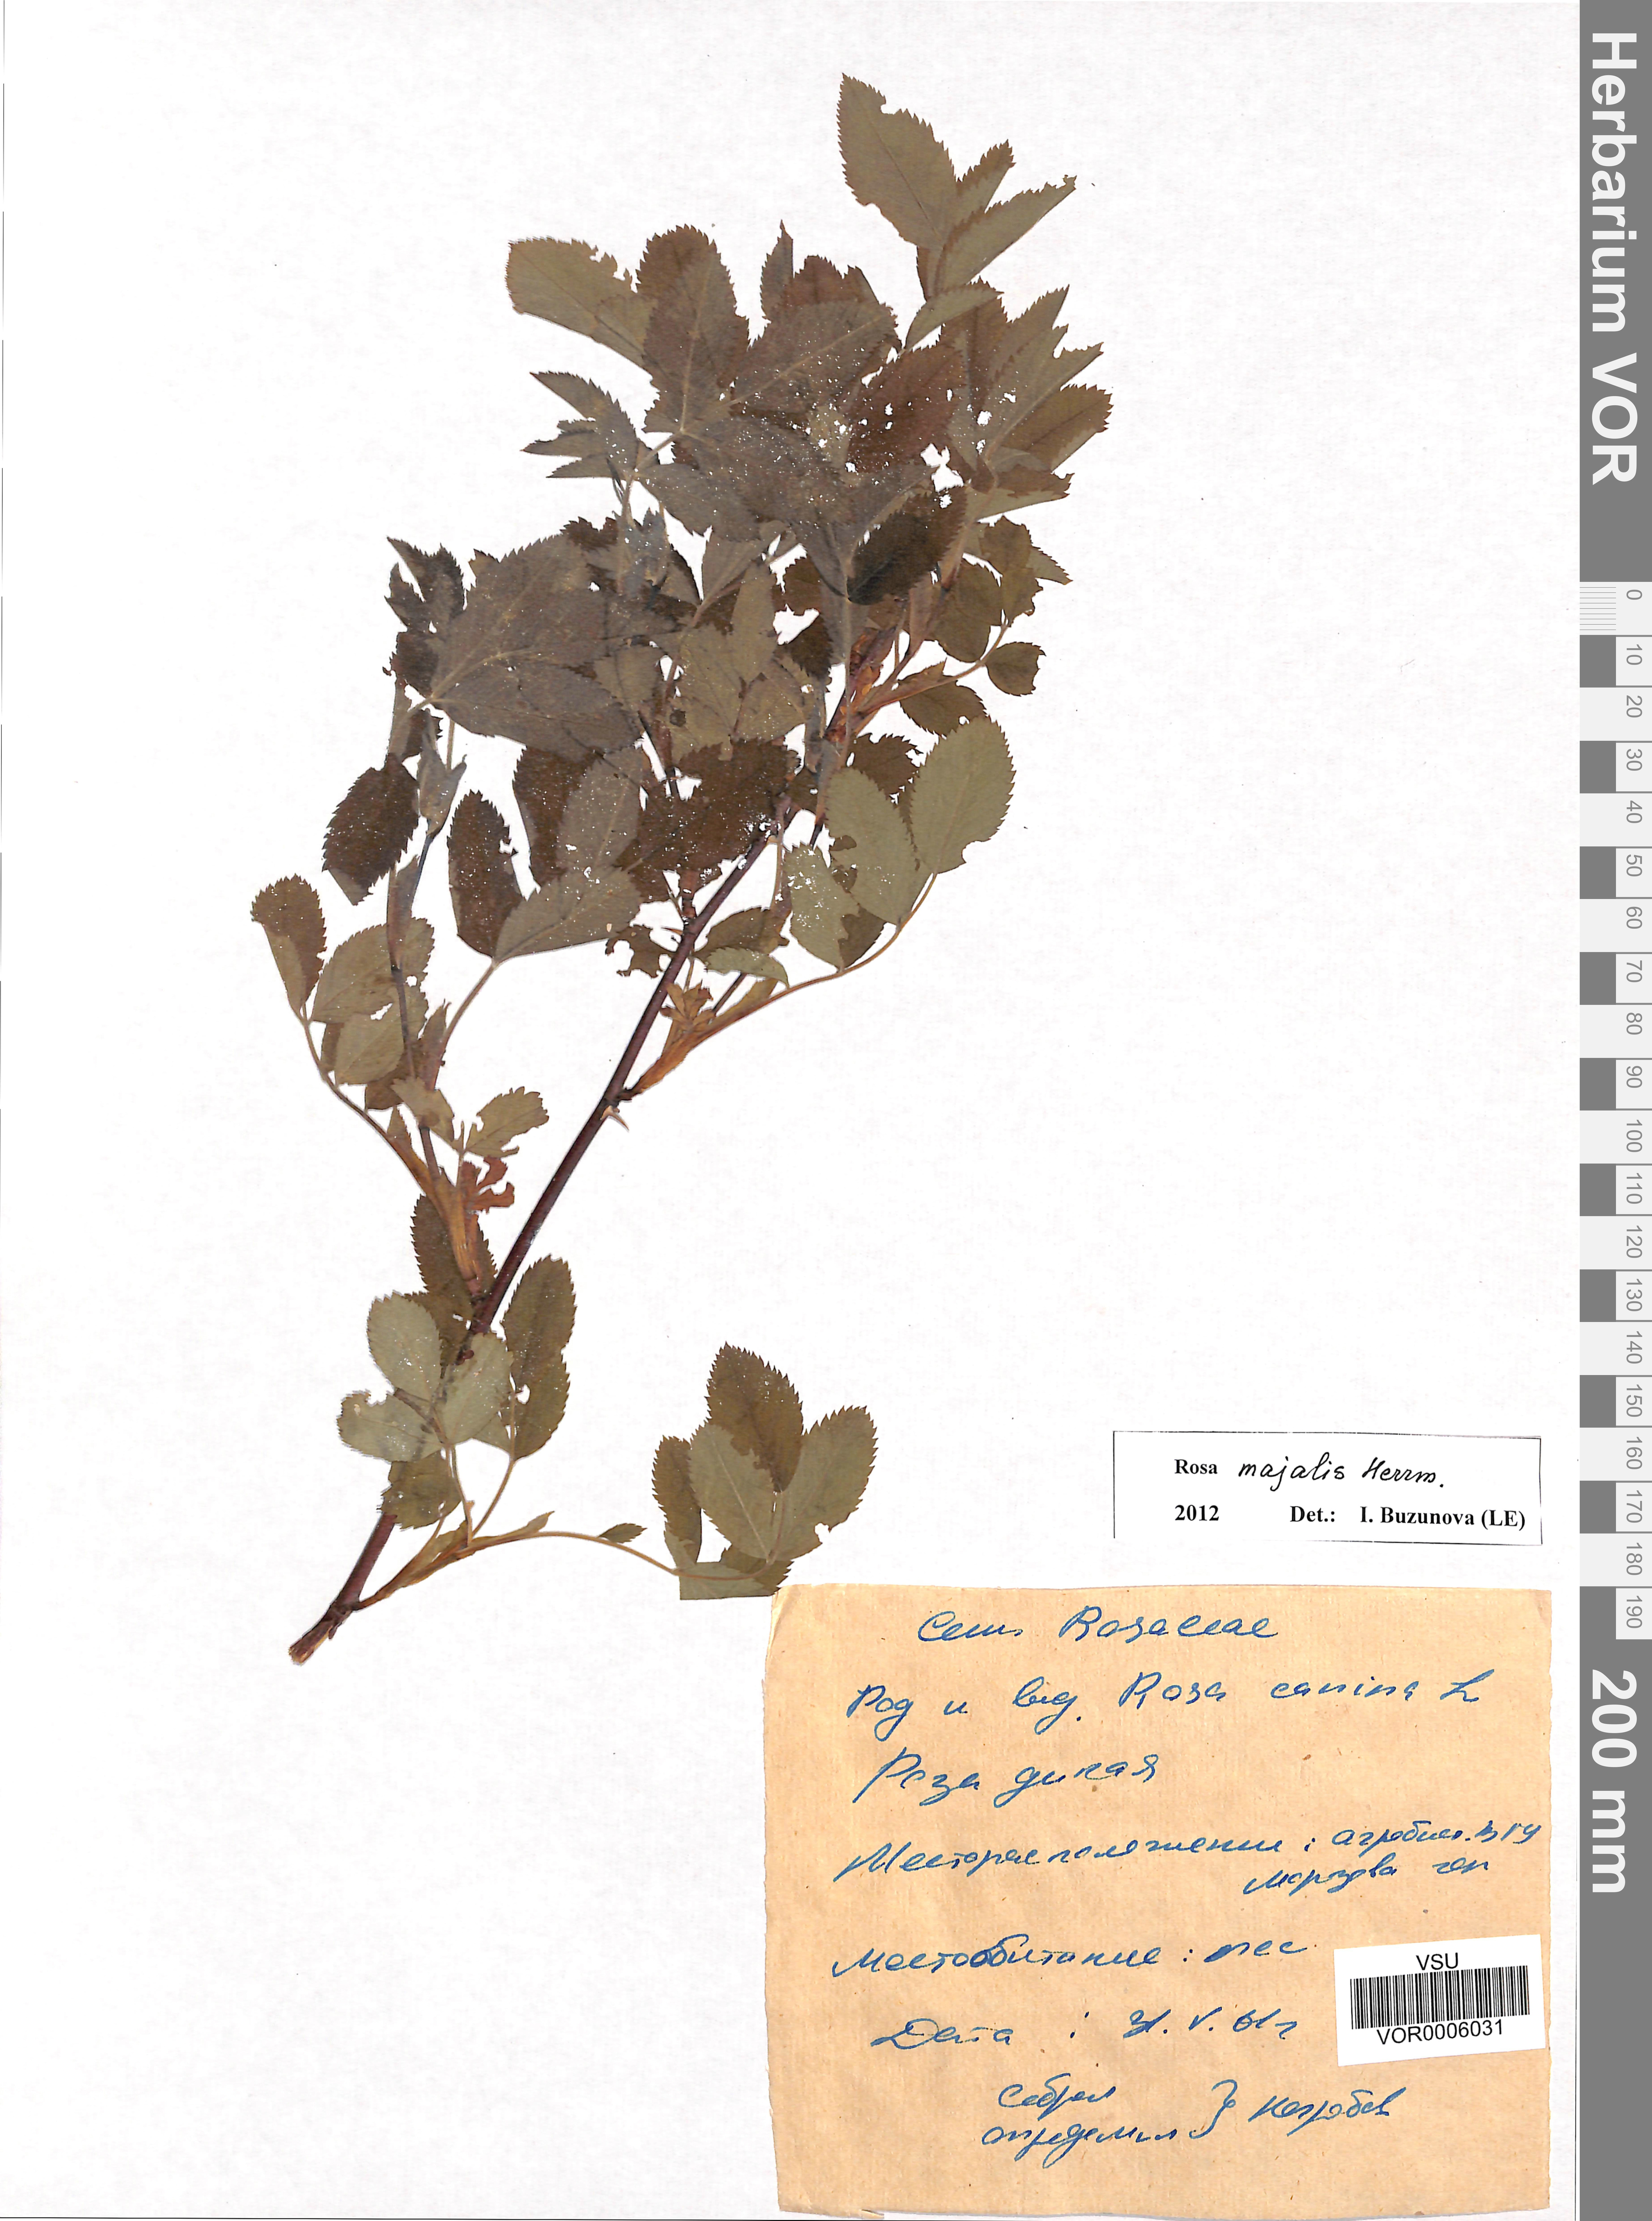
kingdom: Plantae
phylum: Tracheophyta
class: Magnoliopsida
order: Rosales
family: Rosaceae
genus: Rosa
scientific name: Rosa majalis
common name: Cinnamon rose
